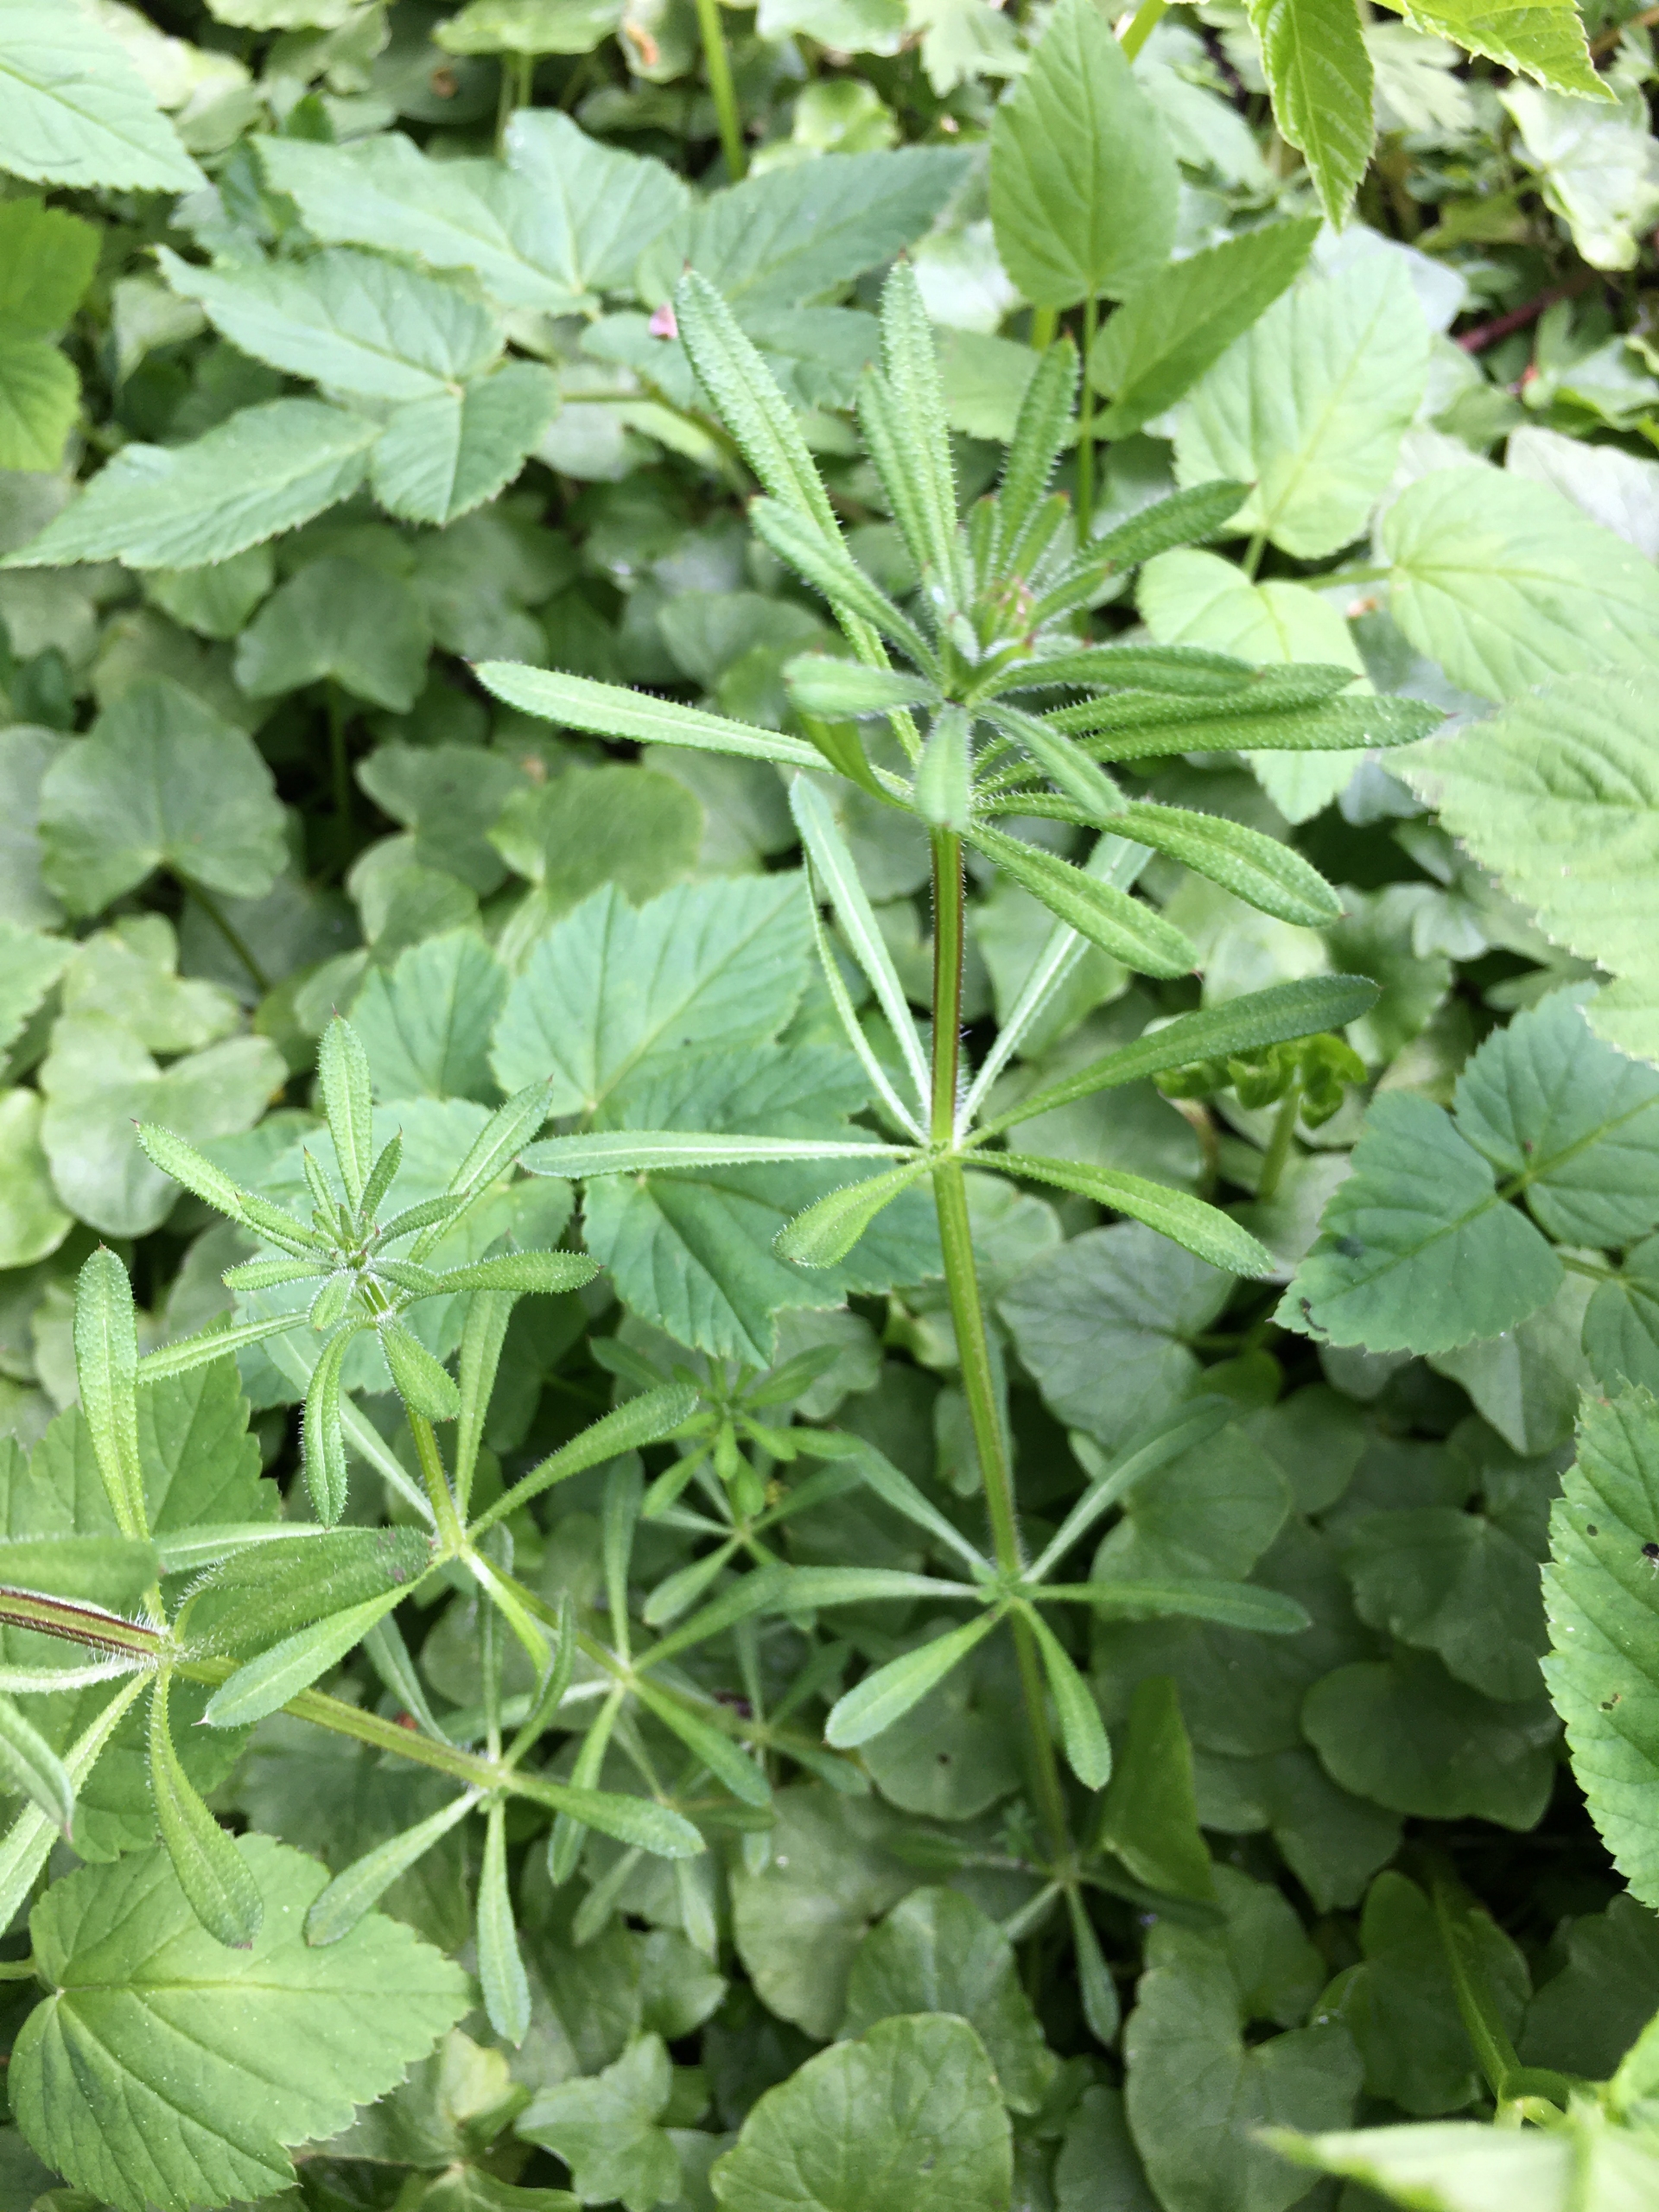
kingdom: Plantae
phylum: Tracheophyta
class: Magnoliopsida
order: Gentianales
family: Rubiaceae
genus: Galium
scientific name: Galium aparine
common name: Burre-snerre
